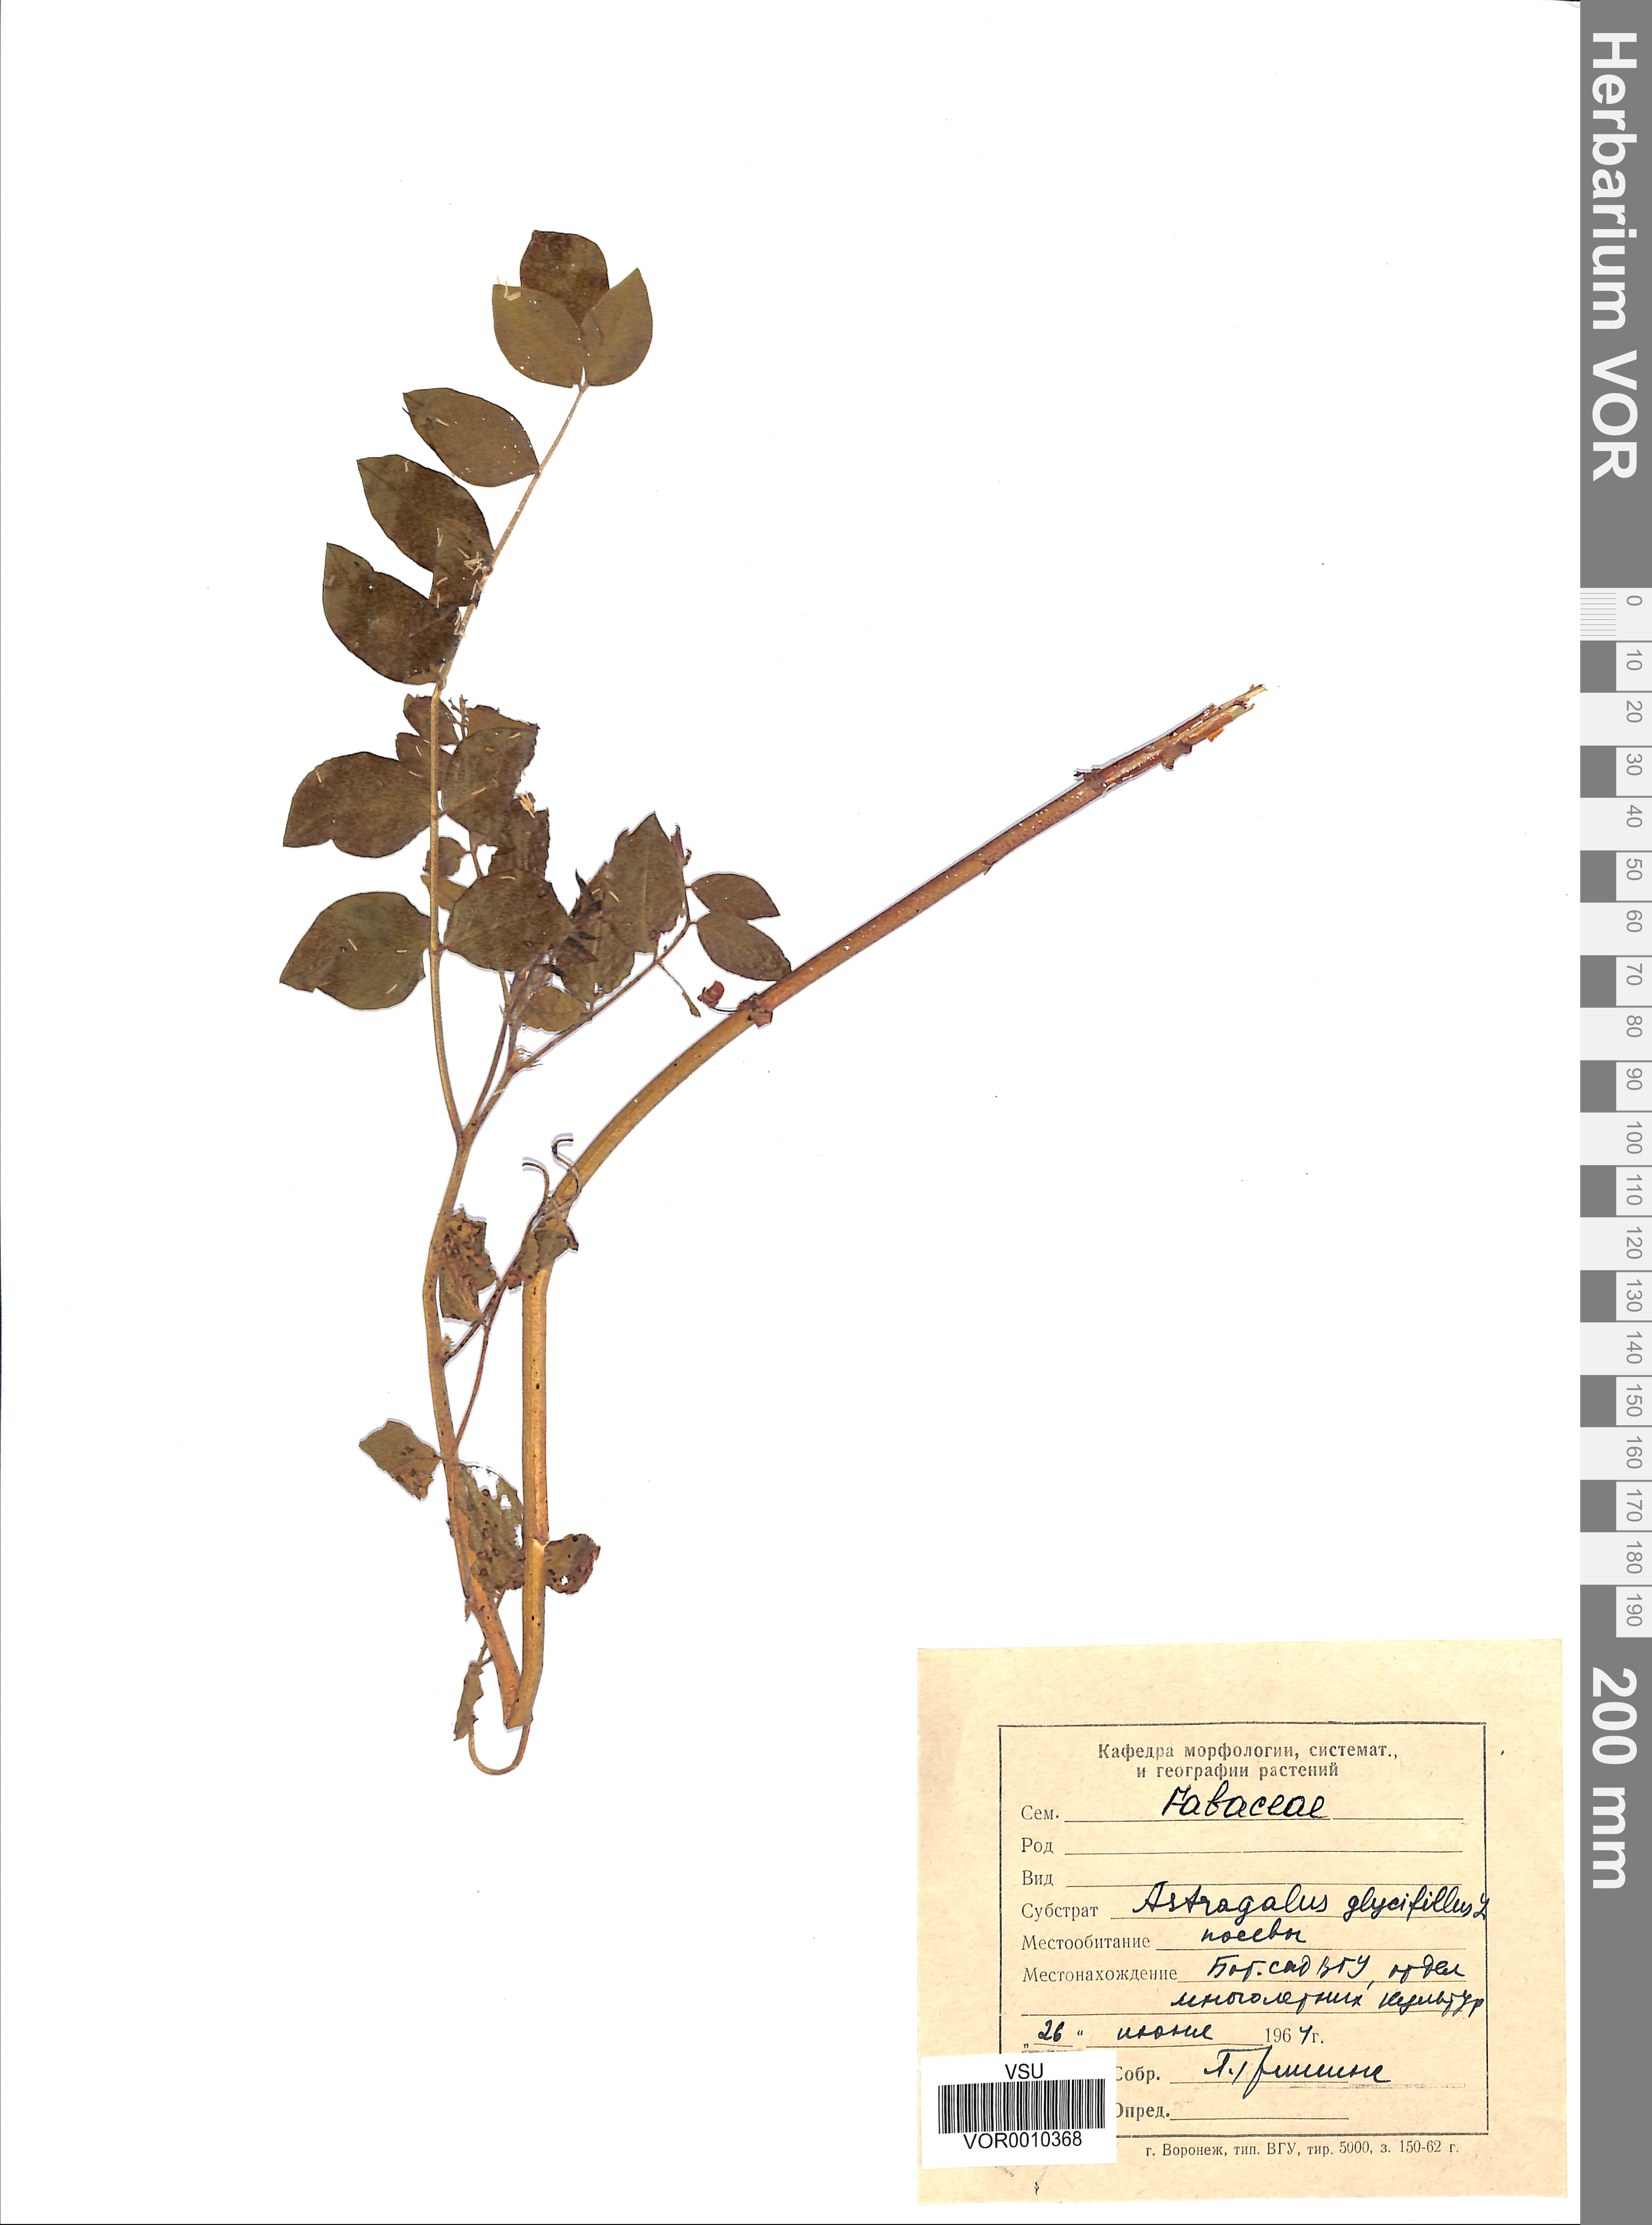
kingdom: Plantae
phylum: Tracheophyta
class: Magnoliopsida
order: Fabales
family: Fabaceae
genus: Astragalus
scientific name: Astragalus glycyphyllos
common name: Wild liquorice
